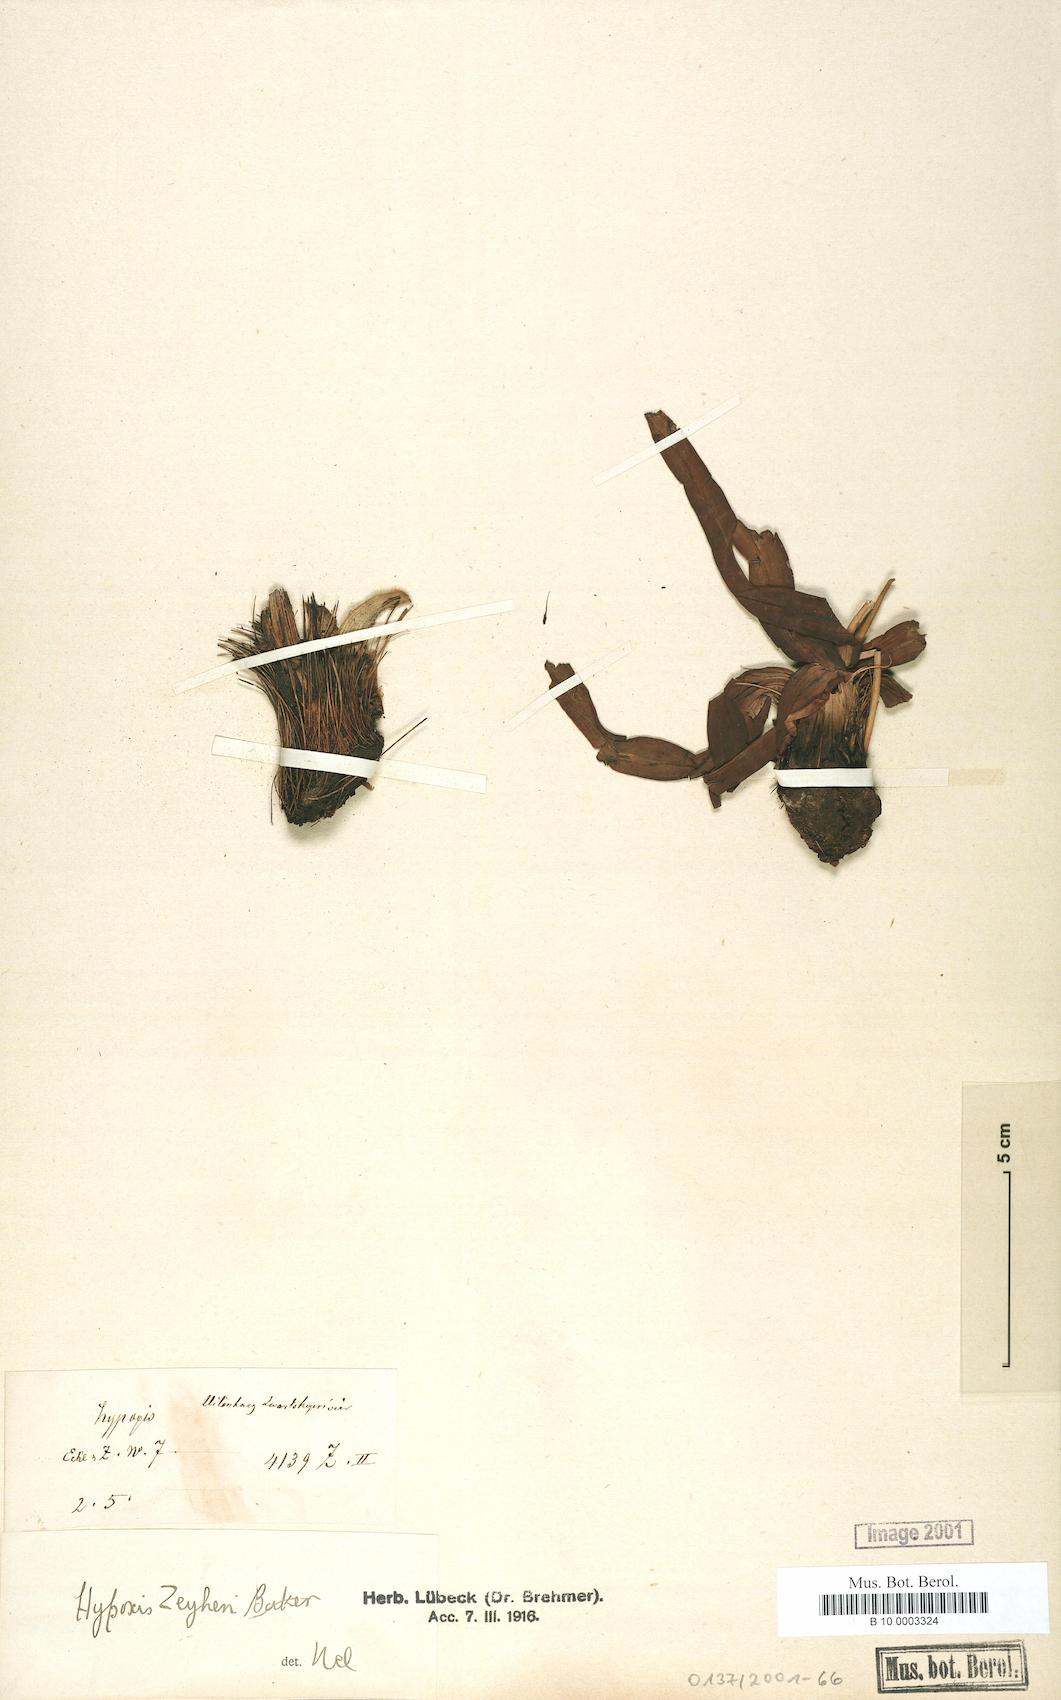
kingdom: Plantae
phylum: Tracheophyta
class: Liliopsida
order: Asparagales
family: Hypoxidaceae
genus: Hypoxis
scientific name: Hypoxis
